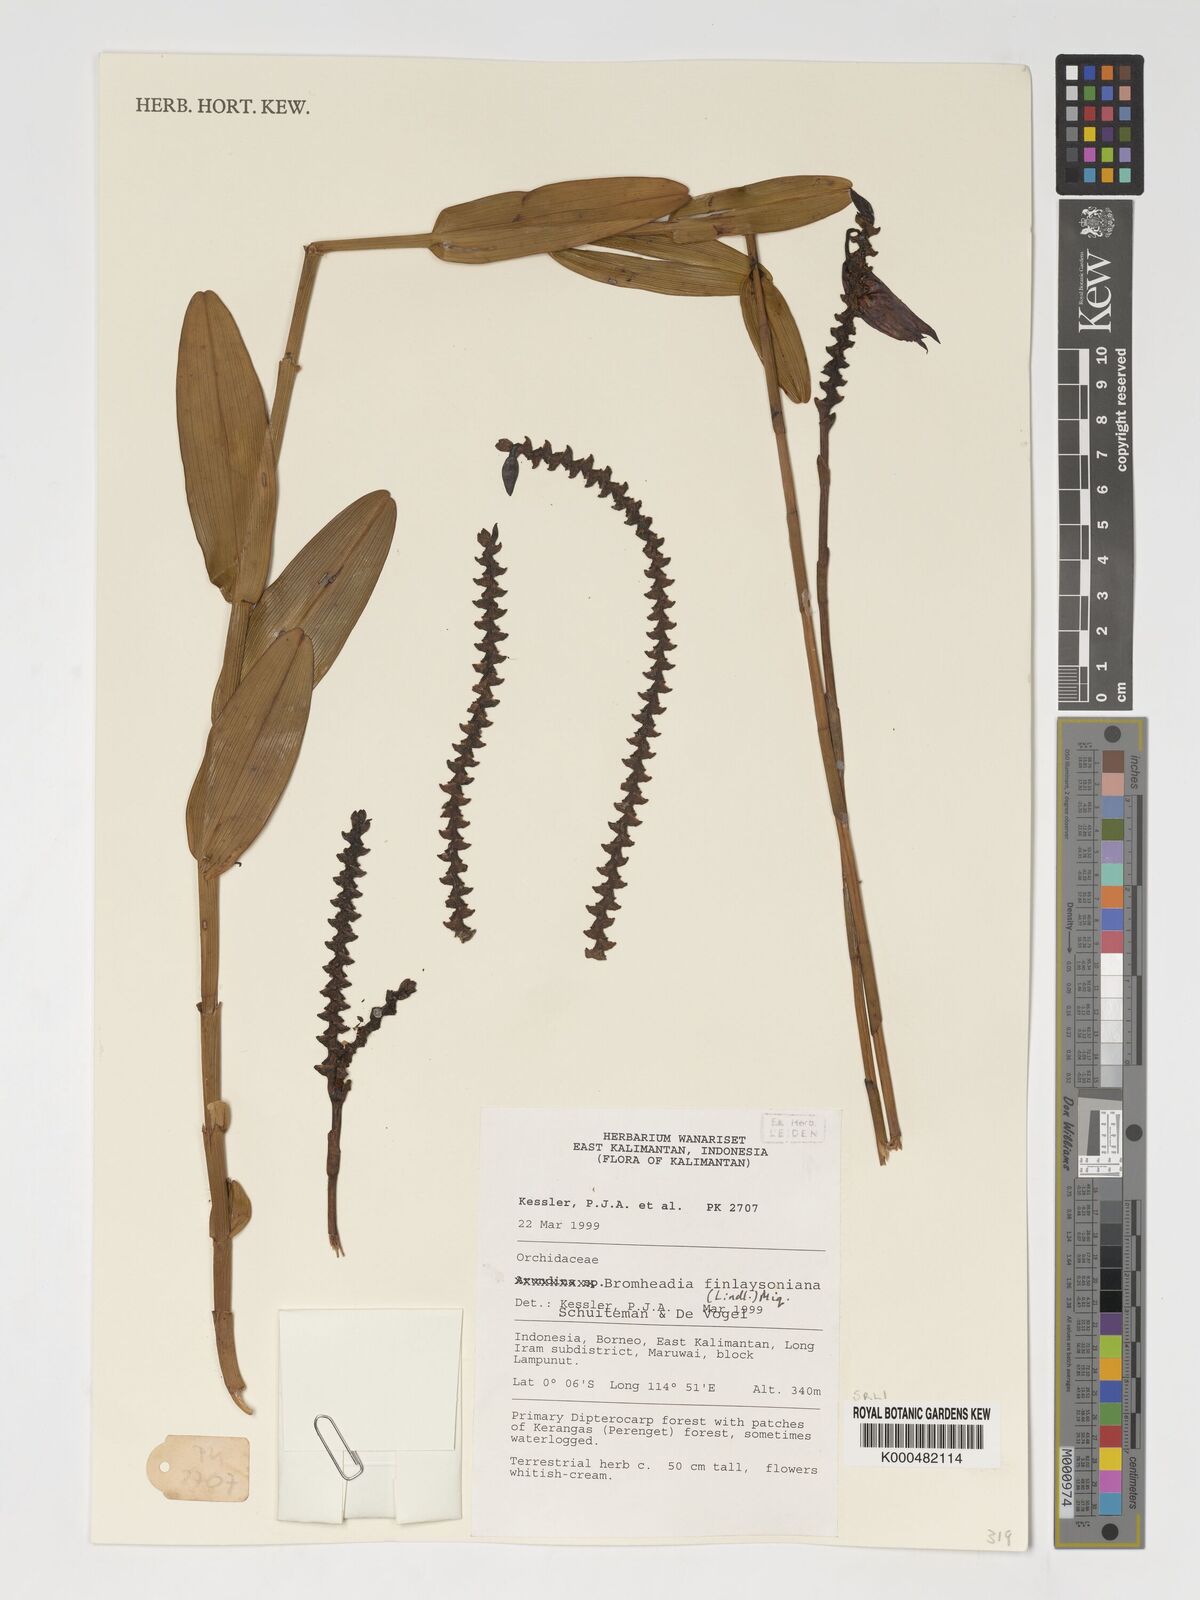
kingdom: Plantae
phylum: Tracheophyta
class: Liliopsida
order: Asparagales
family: Orchidaceae
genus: Bromheadia
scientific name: Bromheadia finlaysoniana
